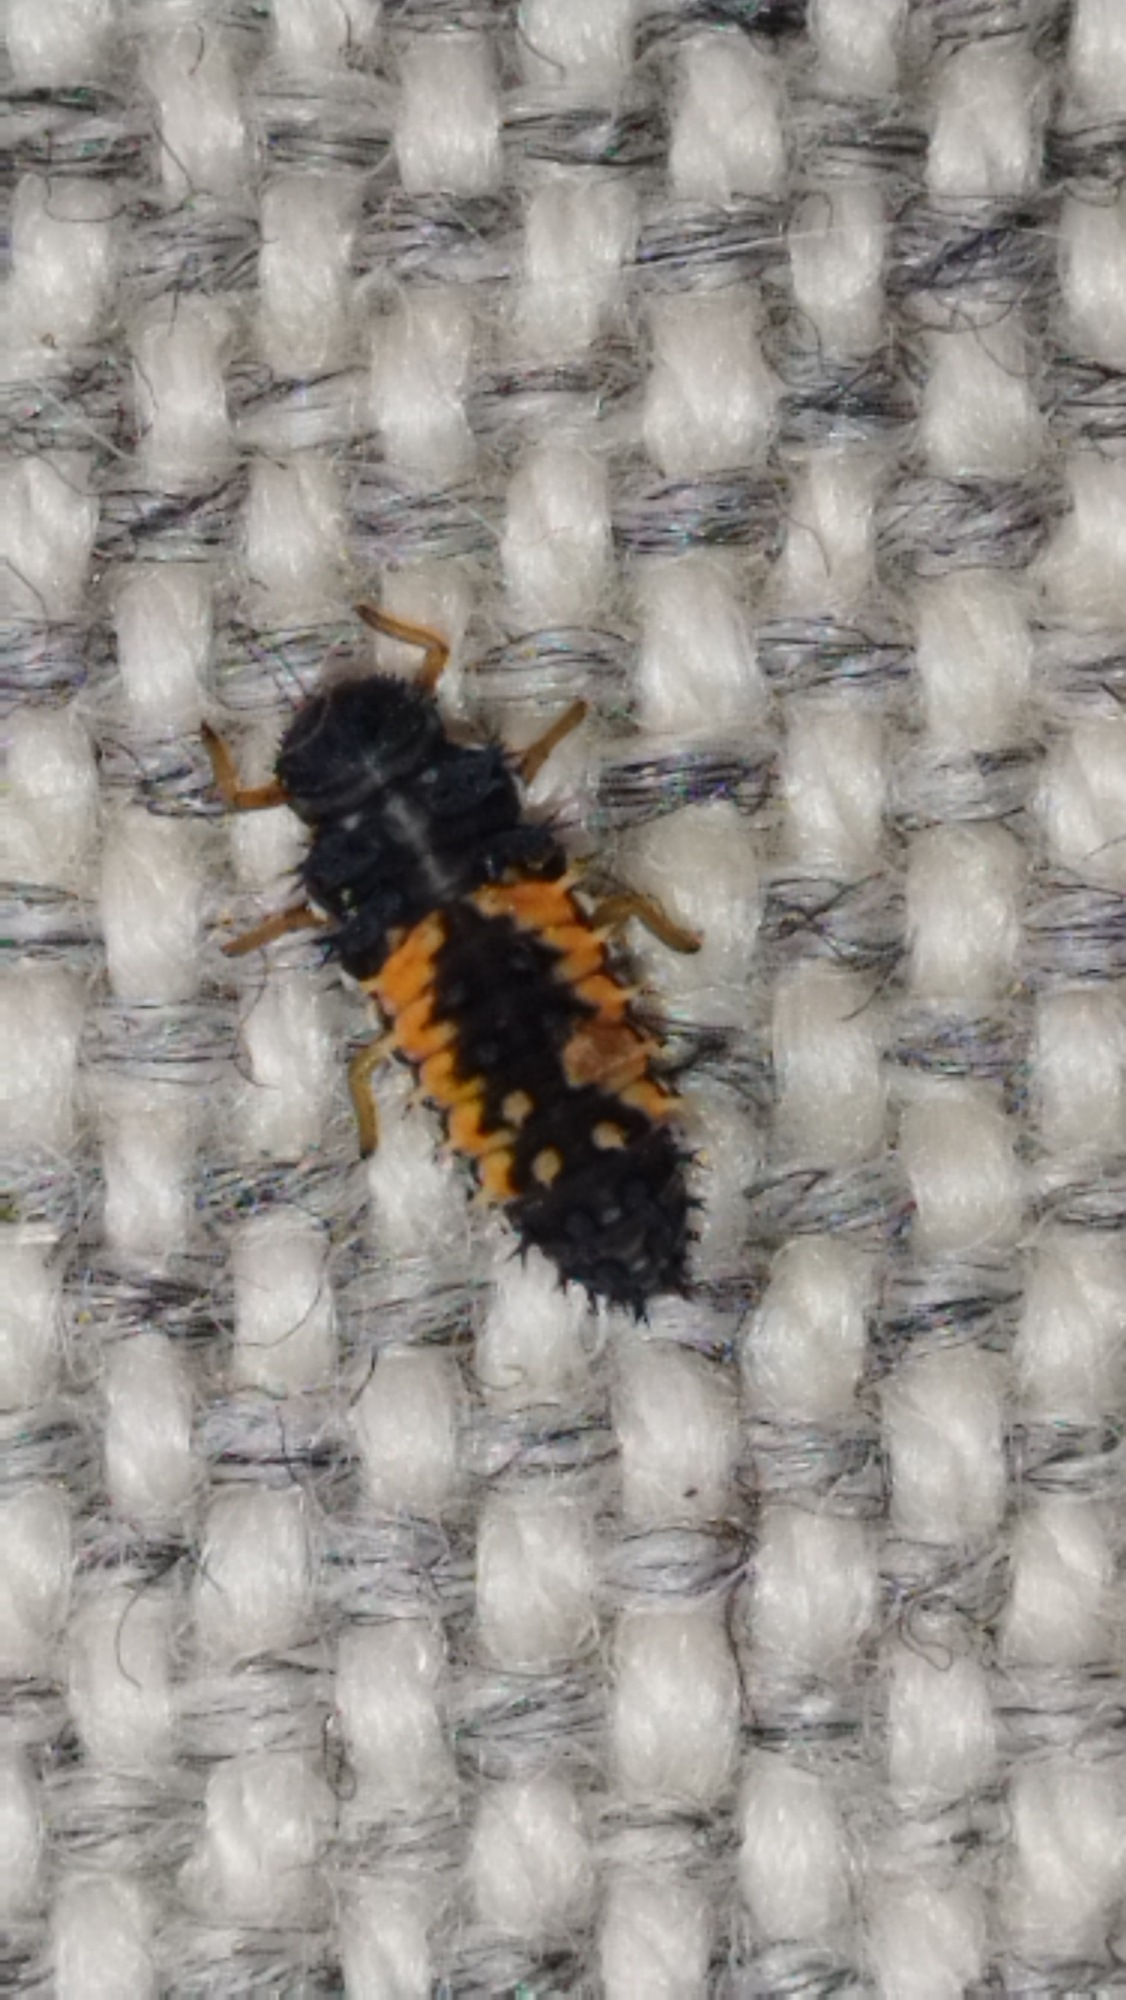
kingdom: Animalia
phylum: Arthropoda
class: Insecta
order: Coleoptera
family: Coccinellidae
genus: Harmonia
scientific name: Harmonia axyridis
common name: Harlekinmariehøne
